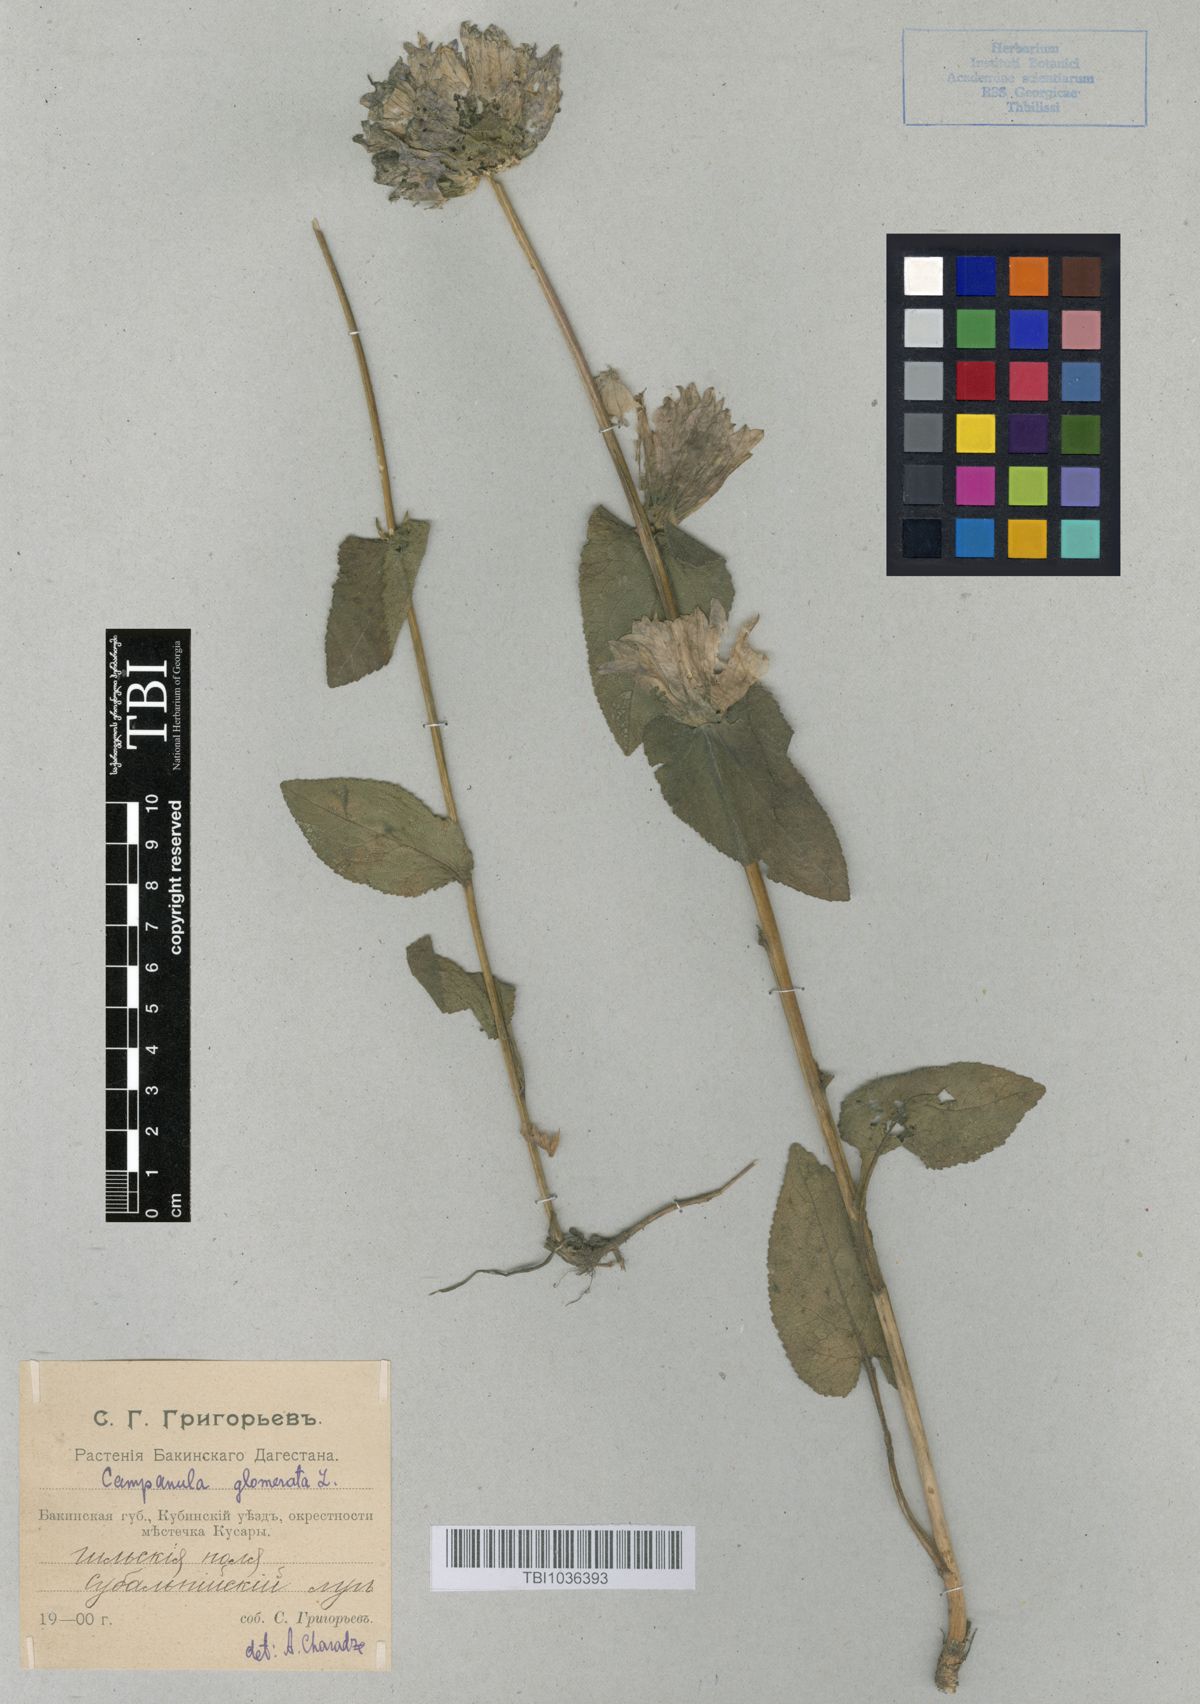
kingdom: Plantae
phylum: Tracheophyta
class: Magnoliopsida
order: Asterales
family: Campanulaceae
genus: Campanula
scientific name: Campanula glomerata
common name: Clustered bellflower
